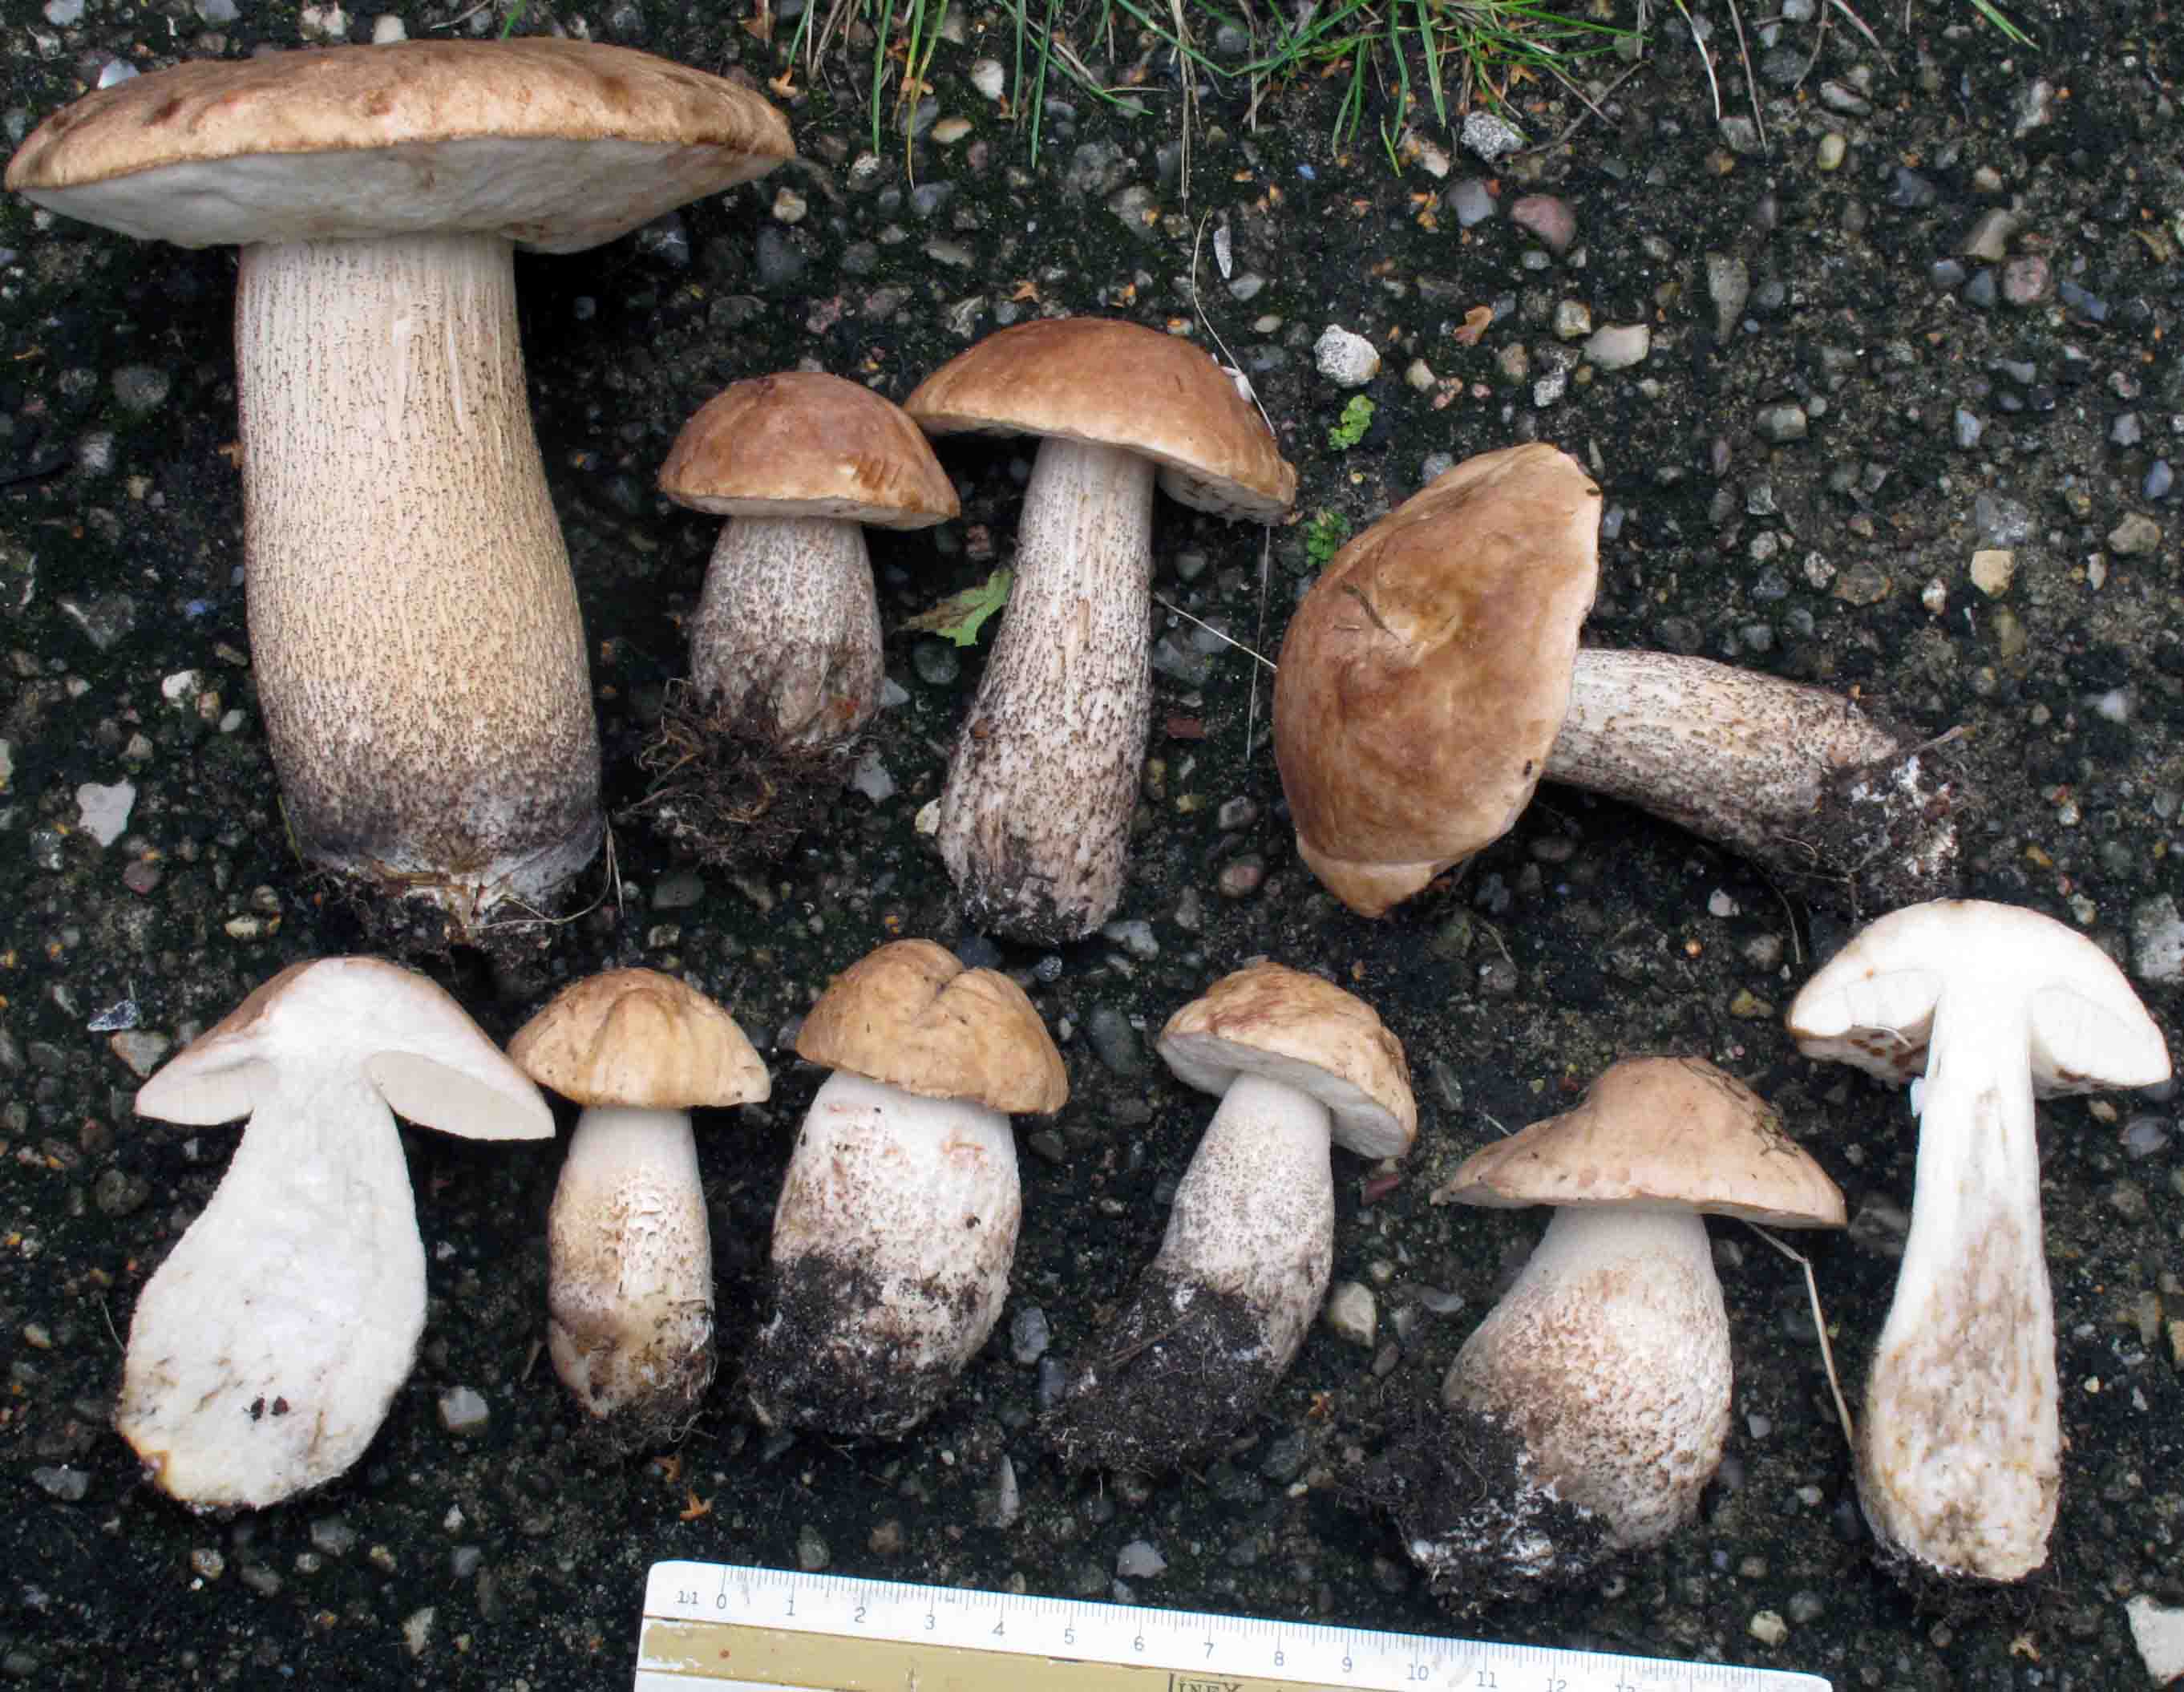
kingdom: Fungi
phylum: Basidiomycota
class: Agaricomycetes
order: Boletales
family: Boletaceae
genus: Leccinum
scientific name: Leccinum scabrum
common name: hvid skælrørhat
